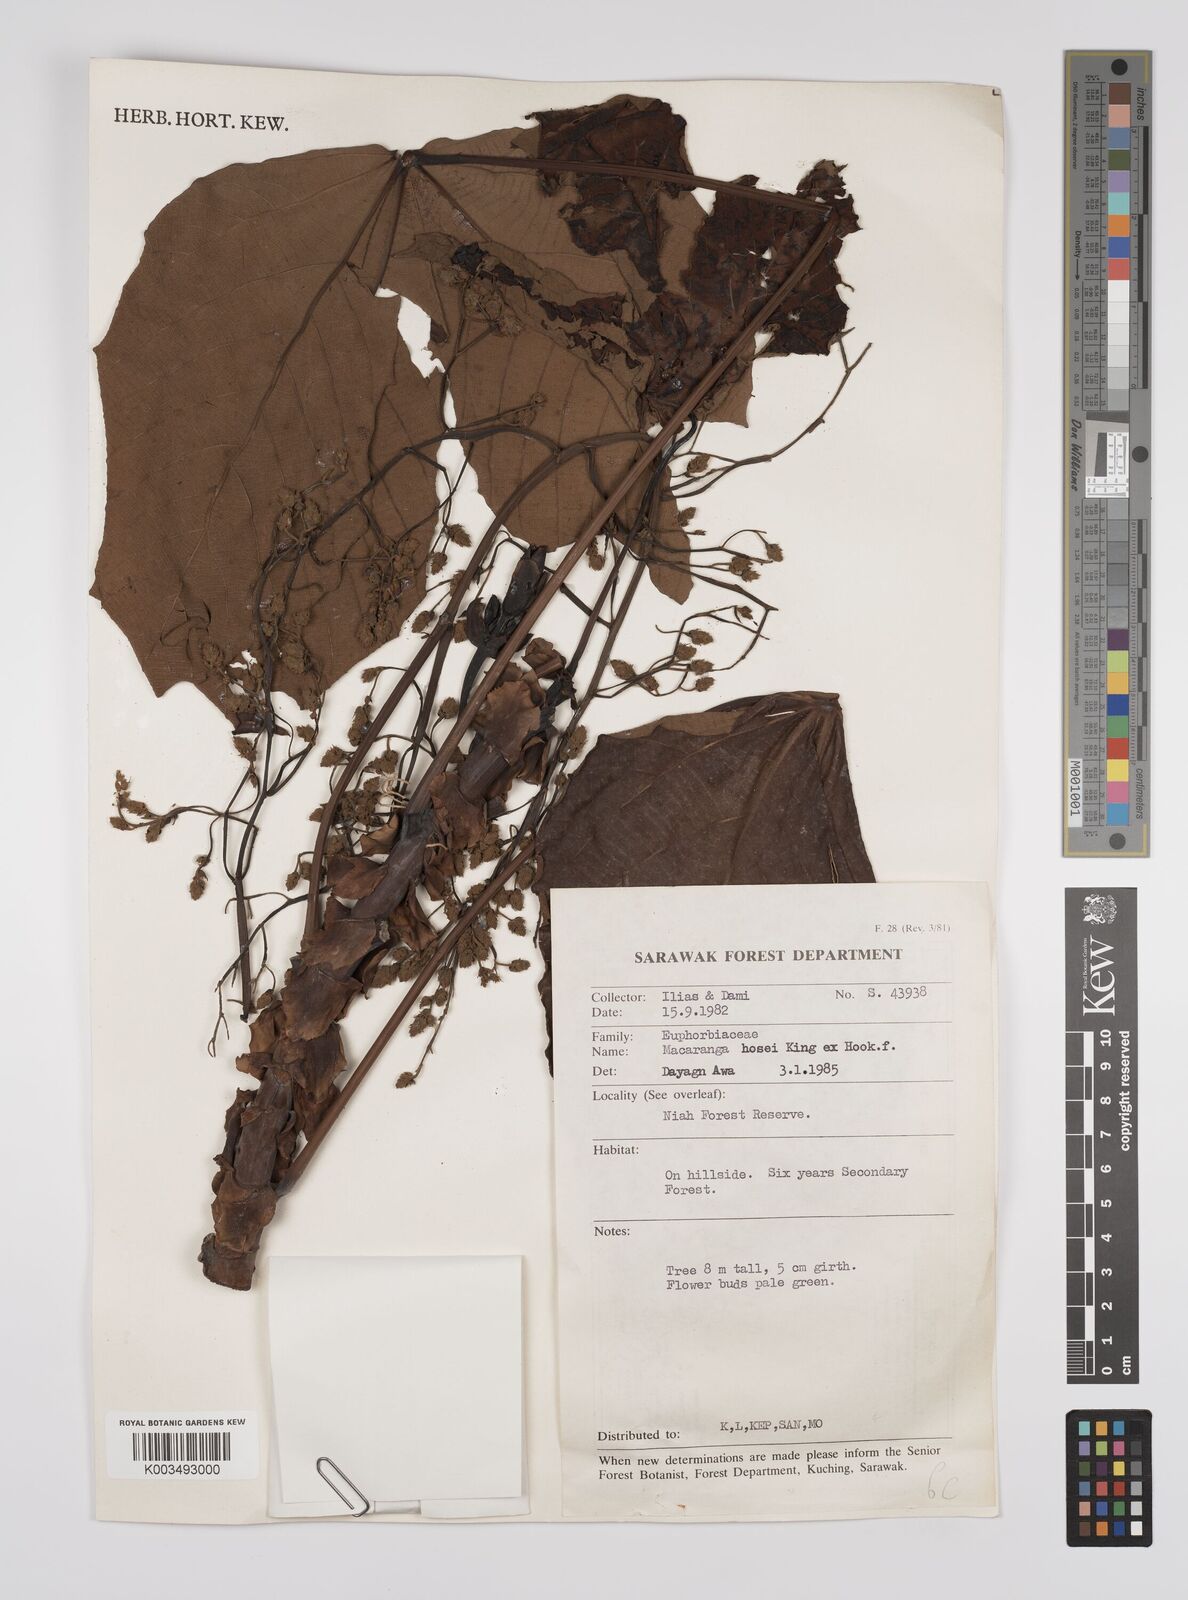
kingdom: Plantae
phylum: Tracheophyta
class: Magnoliopsida
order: Malpighiales
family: Euphorbiaceae
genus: Macaranga
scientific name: Macaranga hosei
